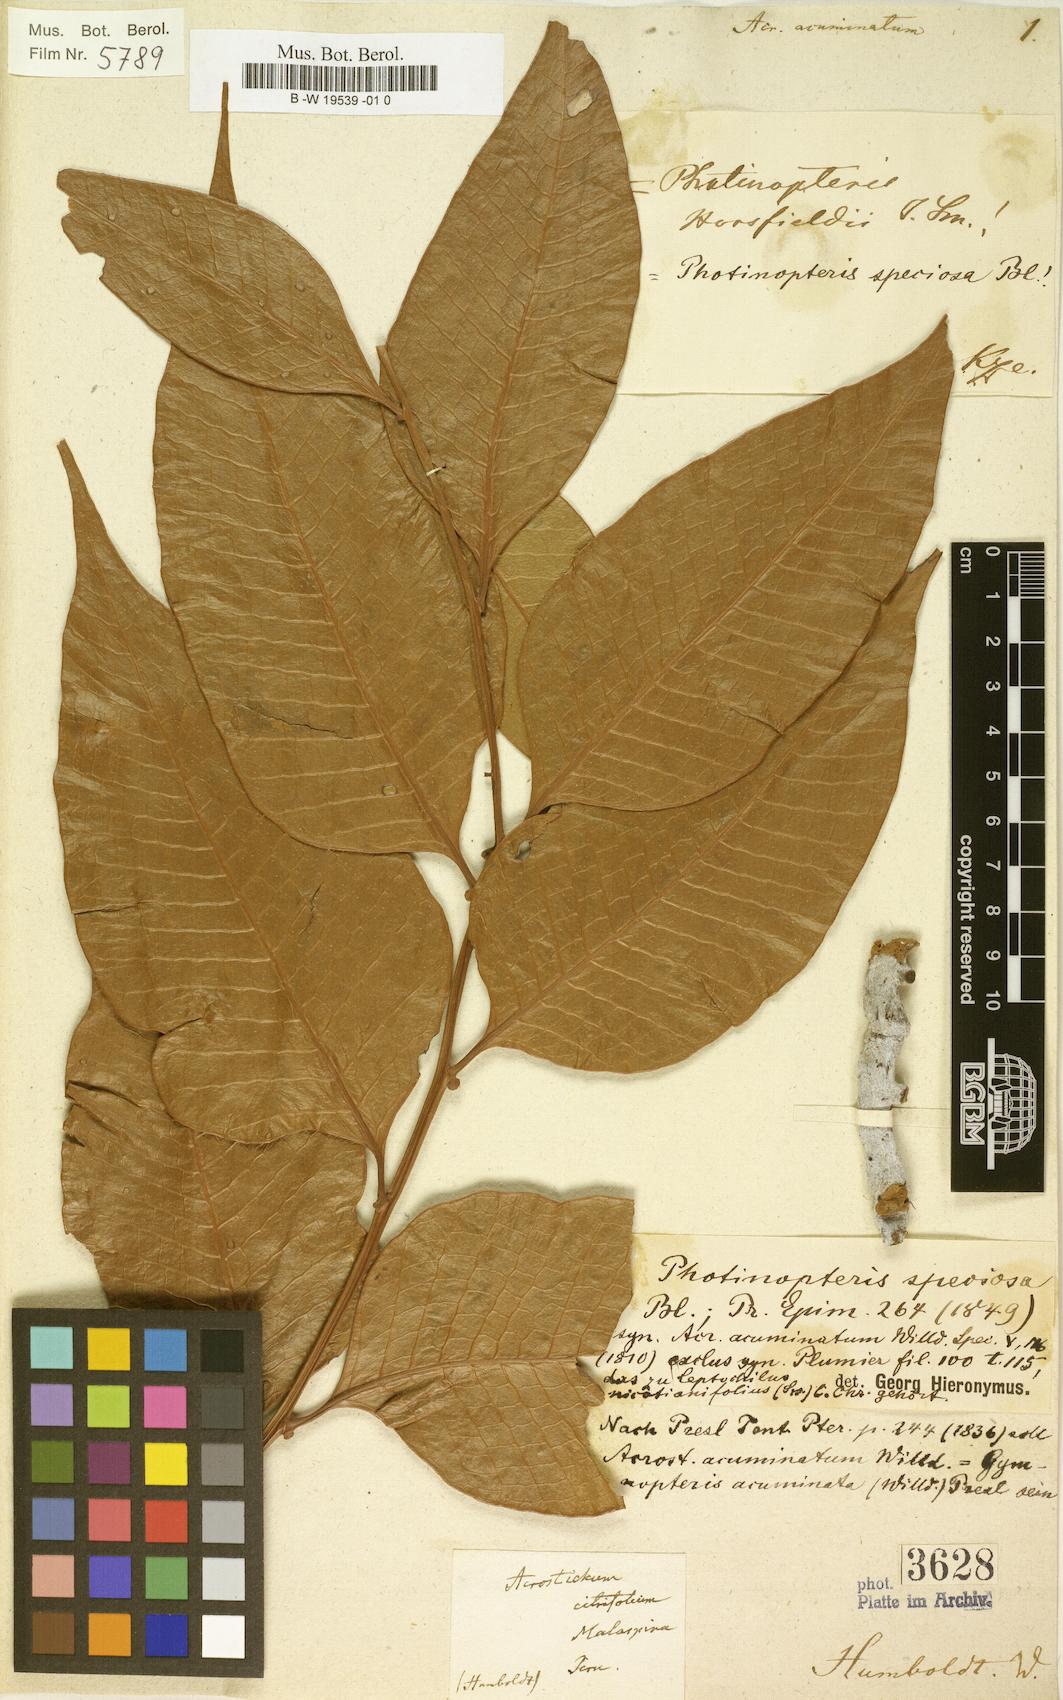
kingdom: Plantae
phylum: Tracheophyta
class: Polypodiopsida
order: Polypodiales
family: Dryopteridaceae
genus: Mickelia
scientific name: Mickelia nicotianifolia
